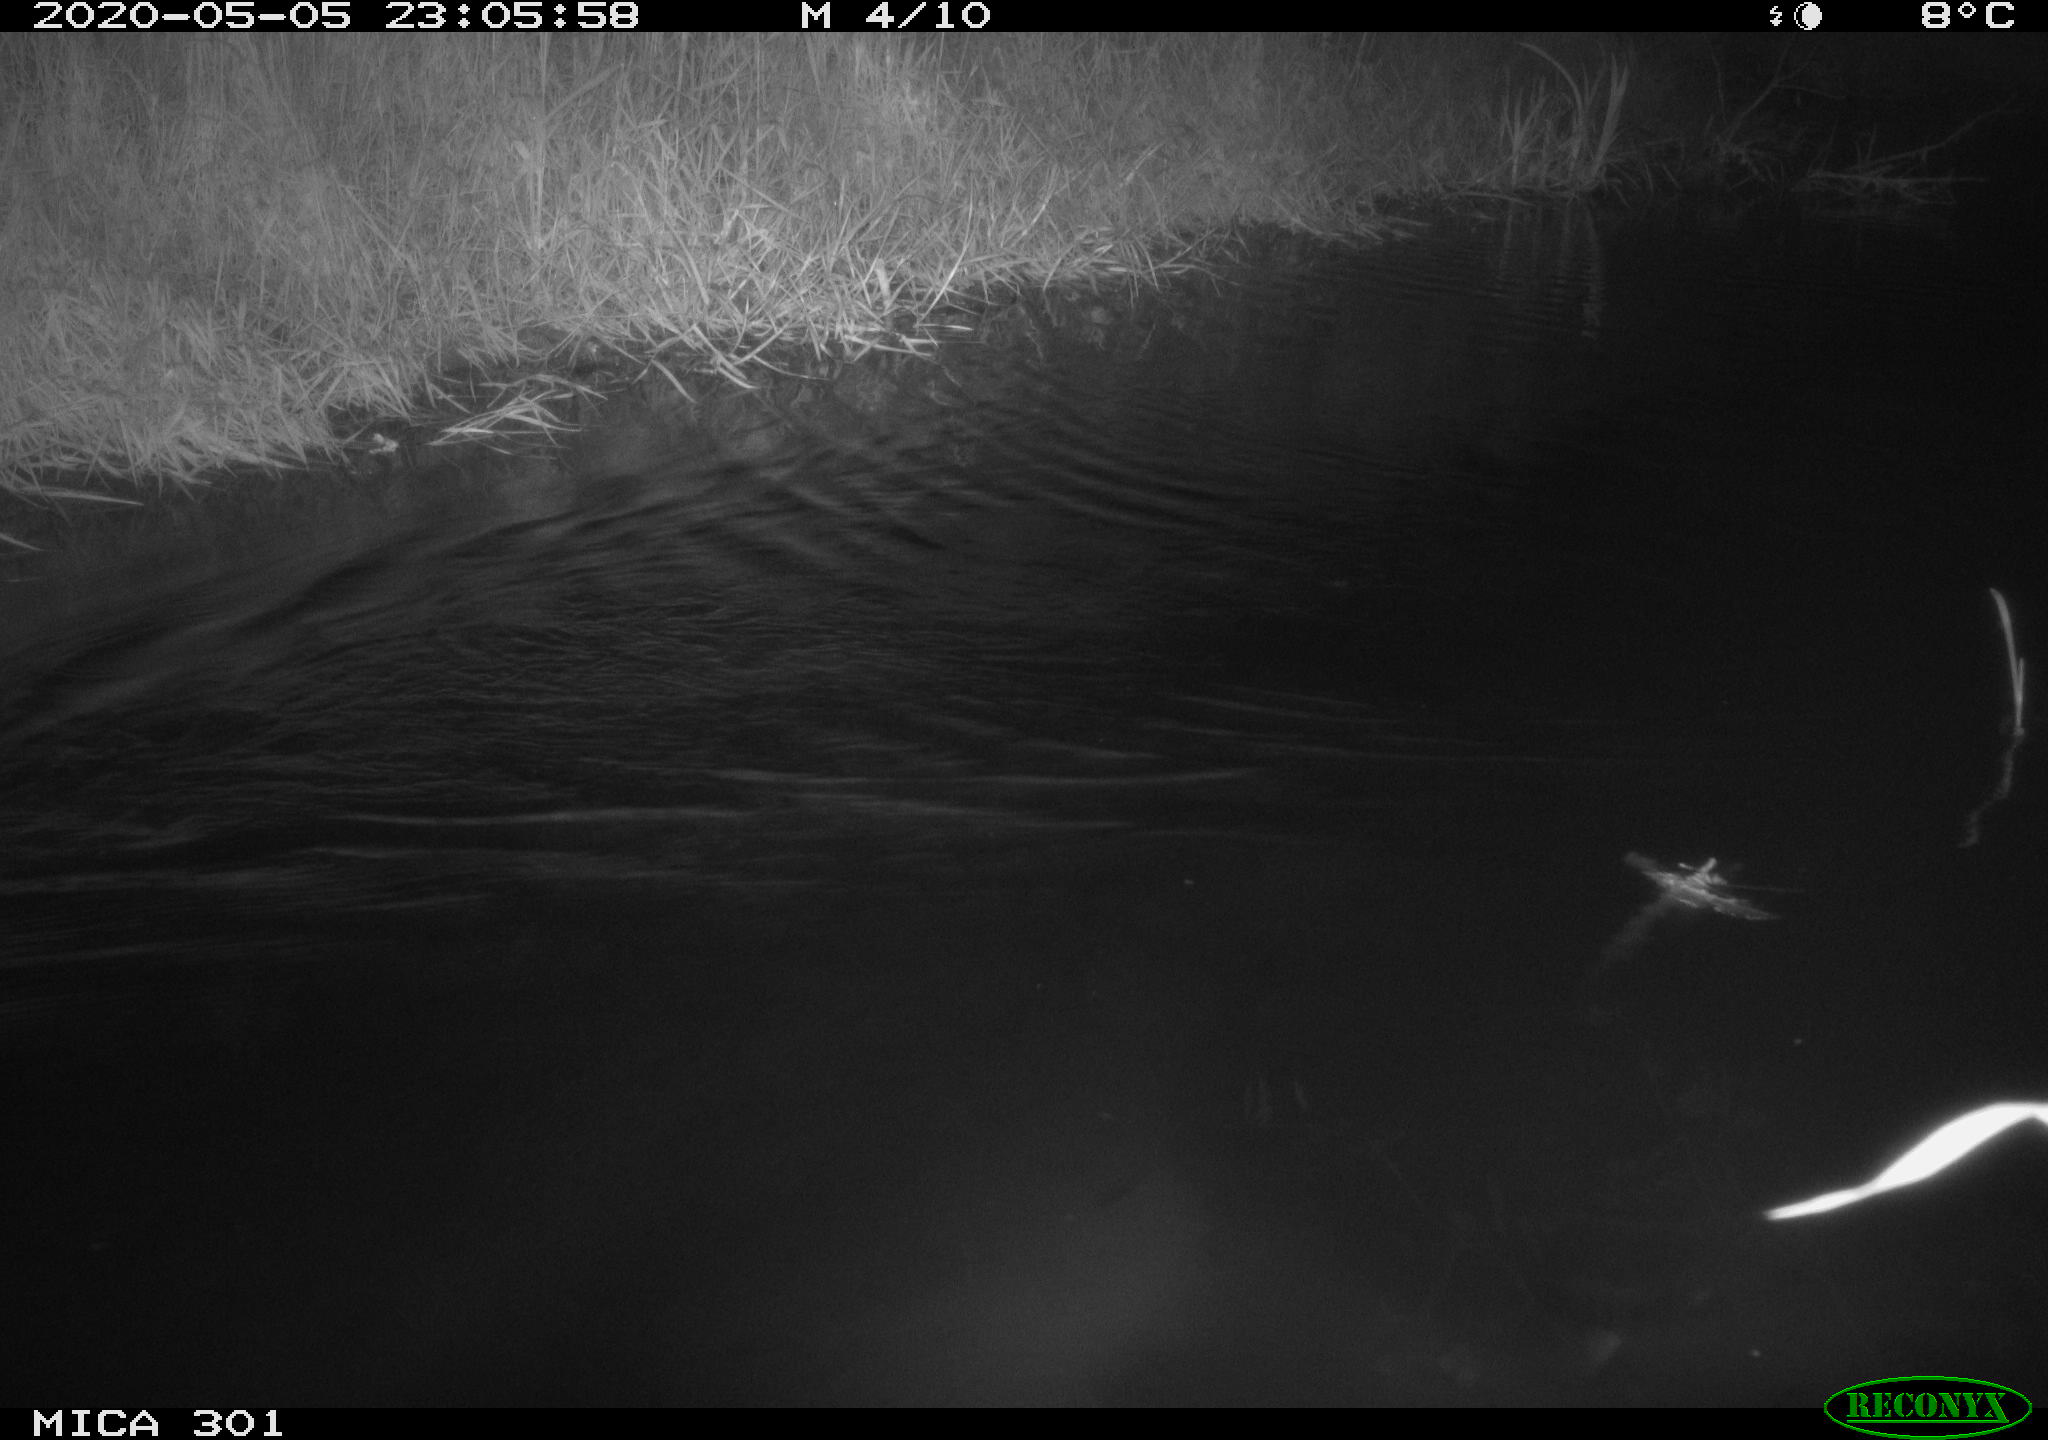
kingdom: Animalia
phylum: Chordata
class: Mammalia
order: Rodentia
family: Castoridae
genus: Castor
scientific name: Castor fiber
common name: Eurasian beaver
